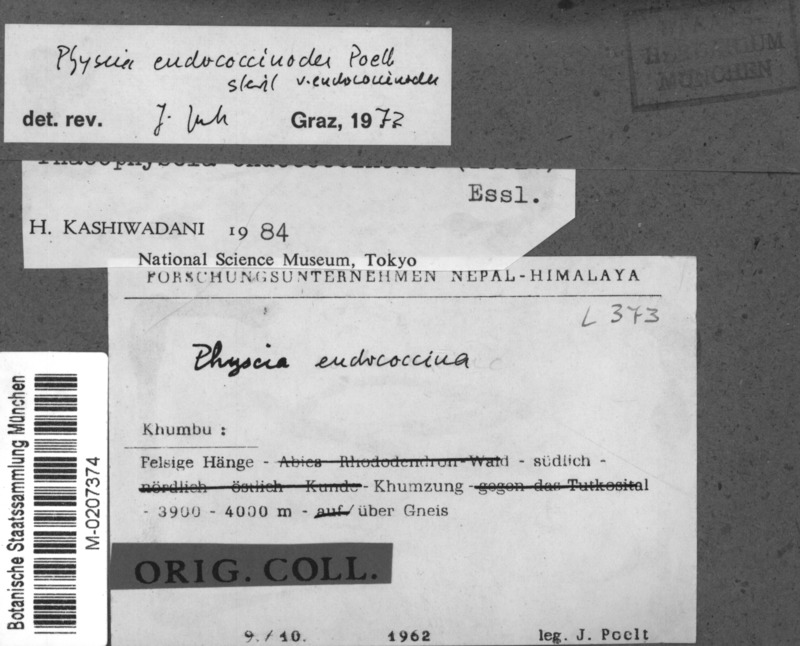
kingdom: Fungi
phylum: Ascomycota
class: Lecanoromycetes
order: Caliciales
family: Physciaceae
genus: Phaeophyscia
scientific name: Phaeophyscia endococcinodes
